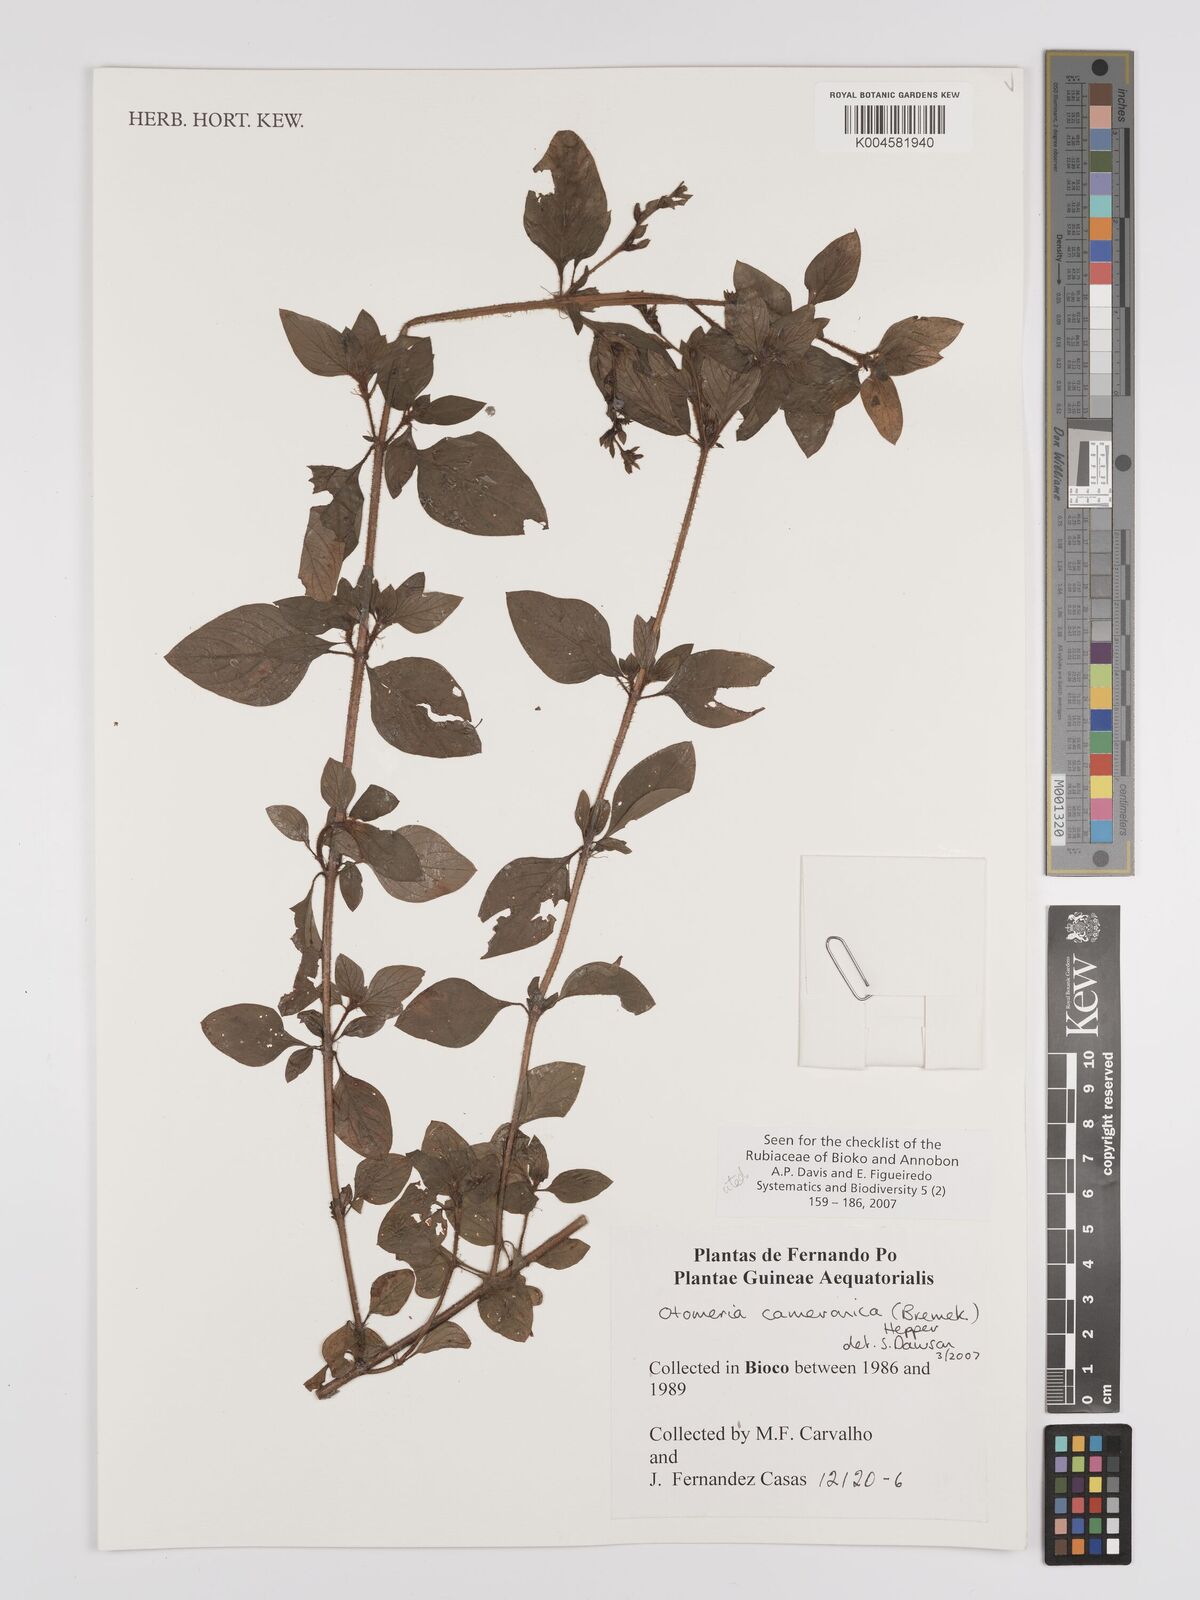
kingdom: Plantae
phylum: Tracheophyta
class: Magnoliopsida
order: Gentianales
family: Rubiaceae
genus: Otomeria
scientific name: Otomeria cameronica
